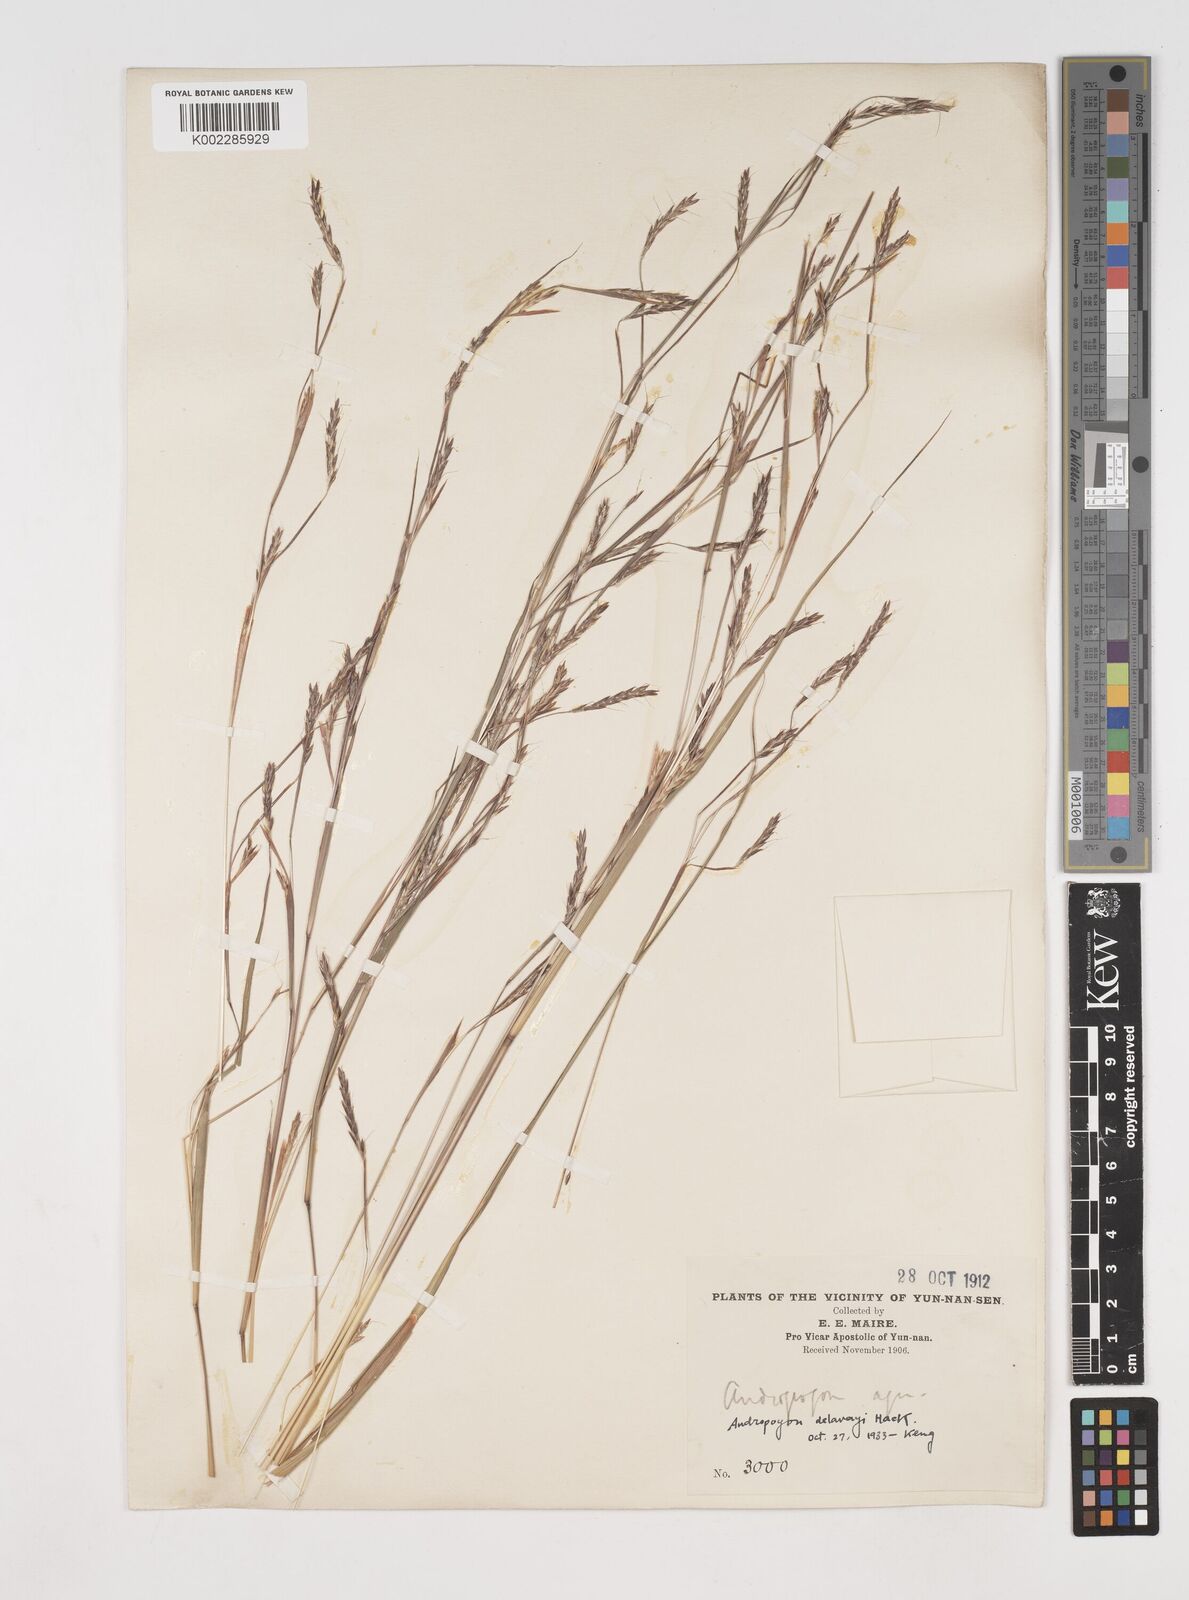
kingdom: Plantae
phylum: Tracheophyta
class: Liliopsida
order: Poales
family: Poaceae
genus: Schizachyrium
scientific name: Schizachyrium delavayi
